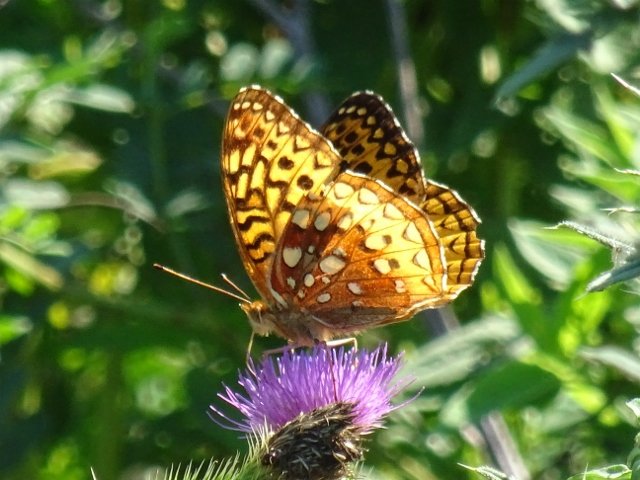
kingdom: Animalia
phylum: Arthropoda
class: Insecta
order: Lepidoptera
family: Nymphalidae
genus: Speyeria
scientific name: Speyeria cybele
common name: Great Spangled Fritillary
